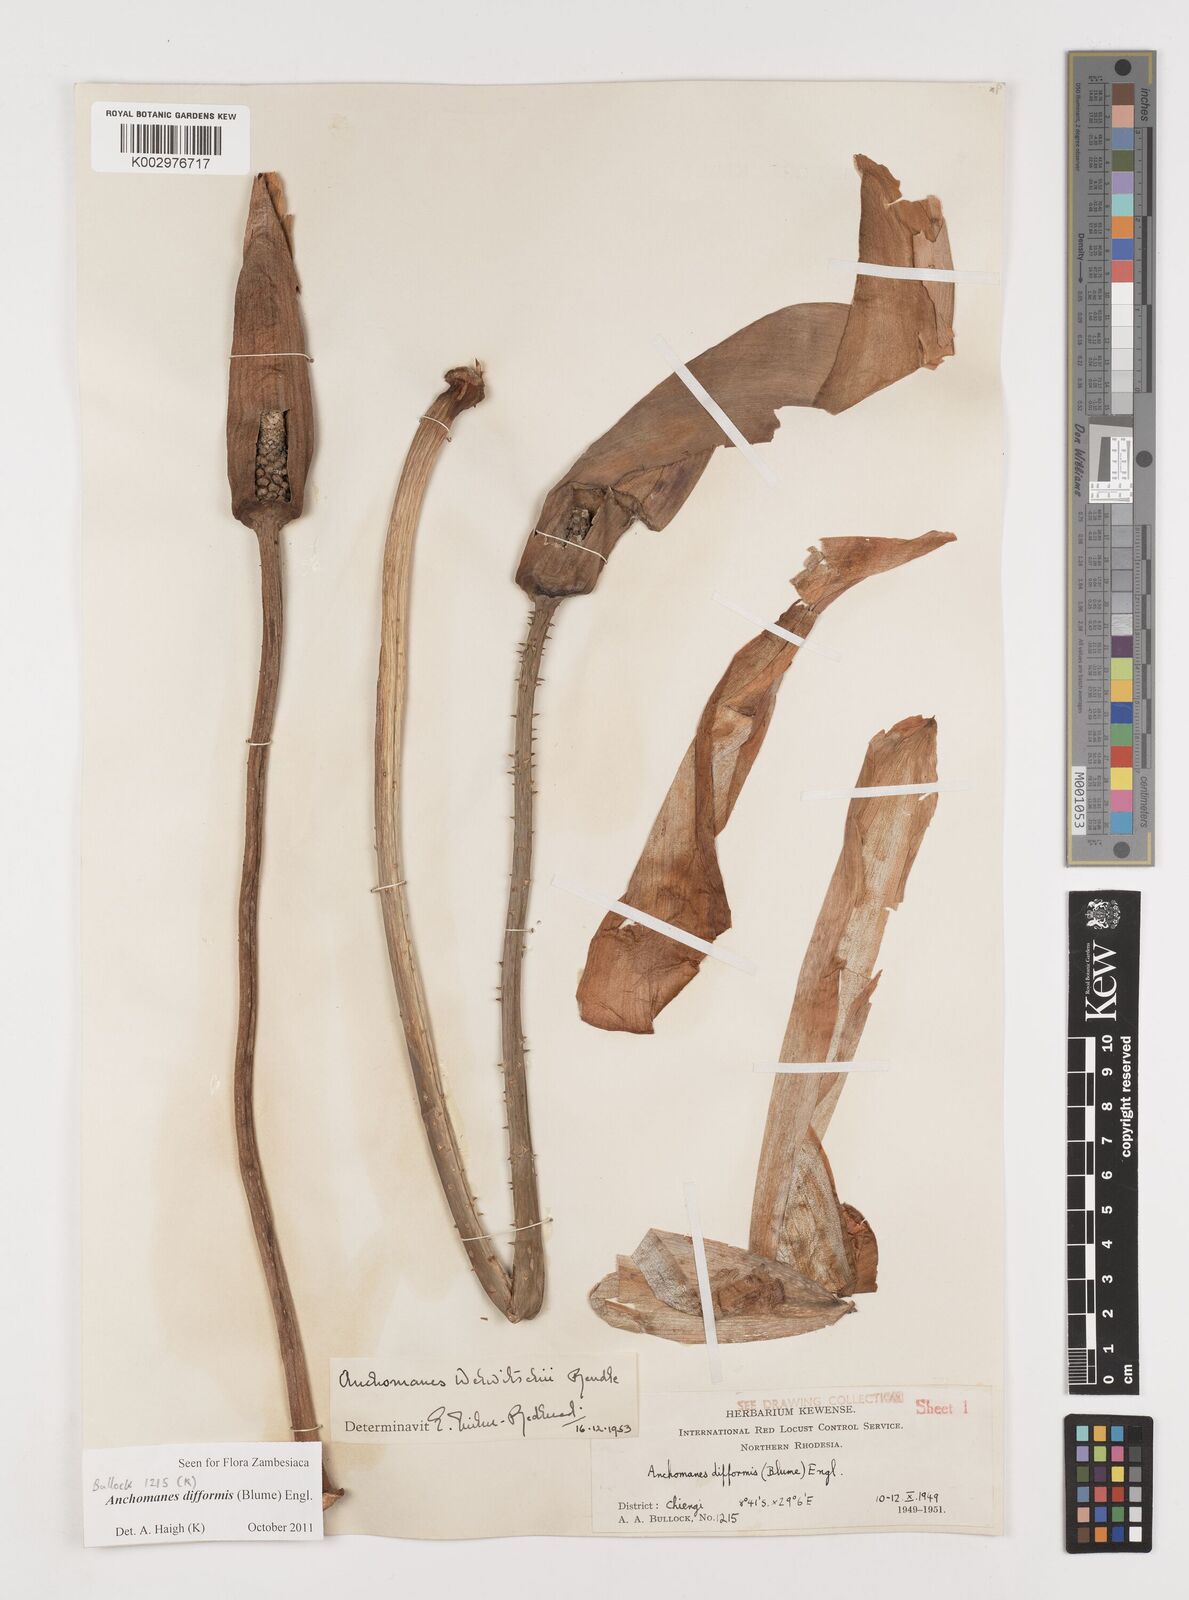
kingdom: Plantae
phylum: Tracheophyta
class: Liliopsida
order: Alismatales
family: Araceae
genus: Anchomanes
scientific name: Anchomanes difformis
